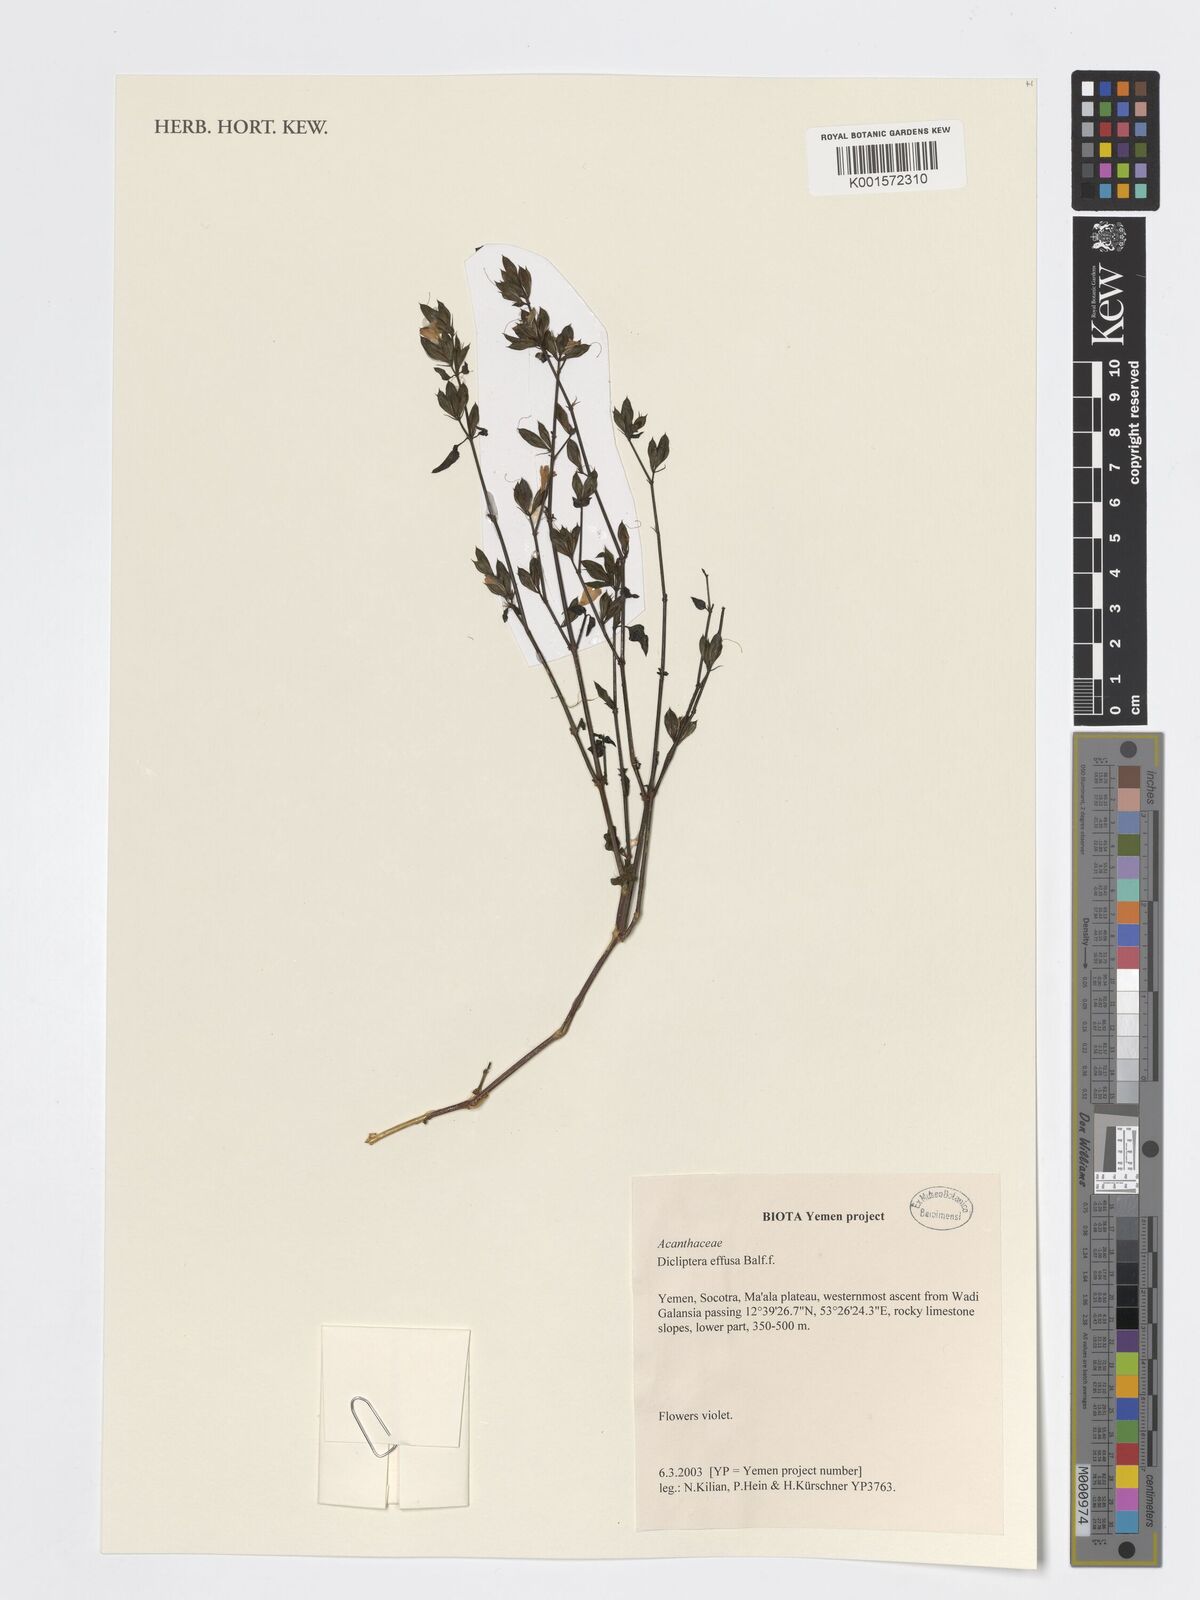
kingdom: Plantae
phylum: Tracheophyta
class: Magnoliopsida
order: Lamiales
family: Acanthaceae
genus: Dicliptera
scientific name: Dicliptera effusa
